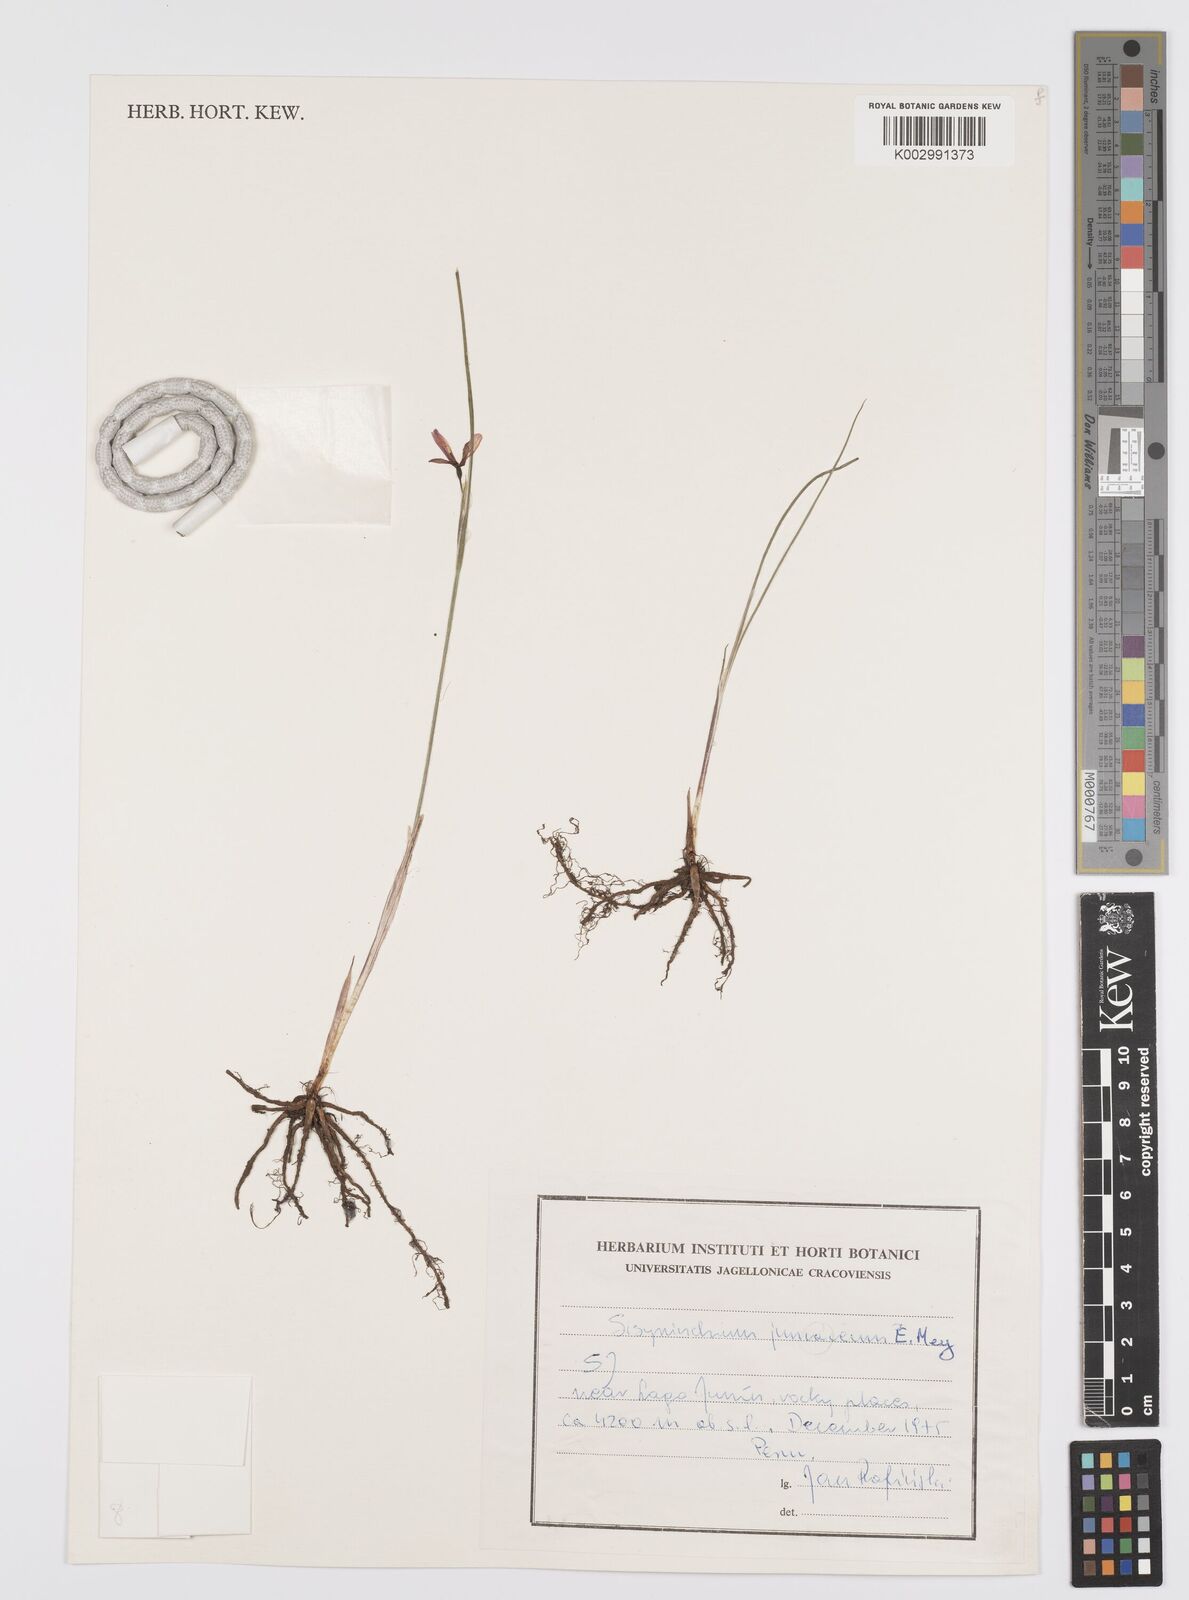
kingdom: Plantae
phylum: Tracheophyta
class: Liliopsida
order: Asparagales
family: Iridaceae
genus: Olsynium
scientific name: Olsynium junceum
